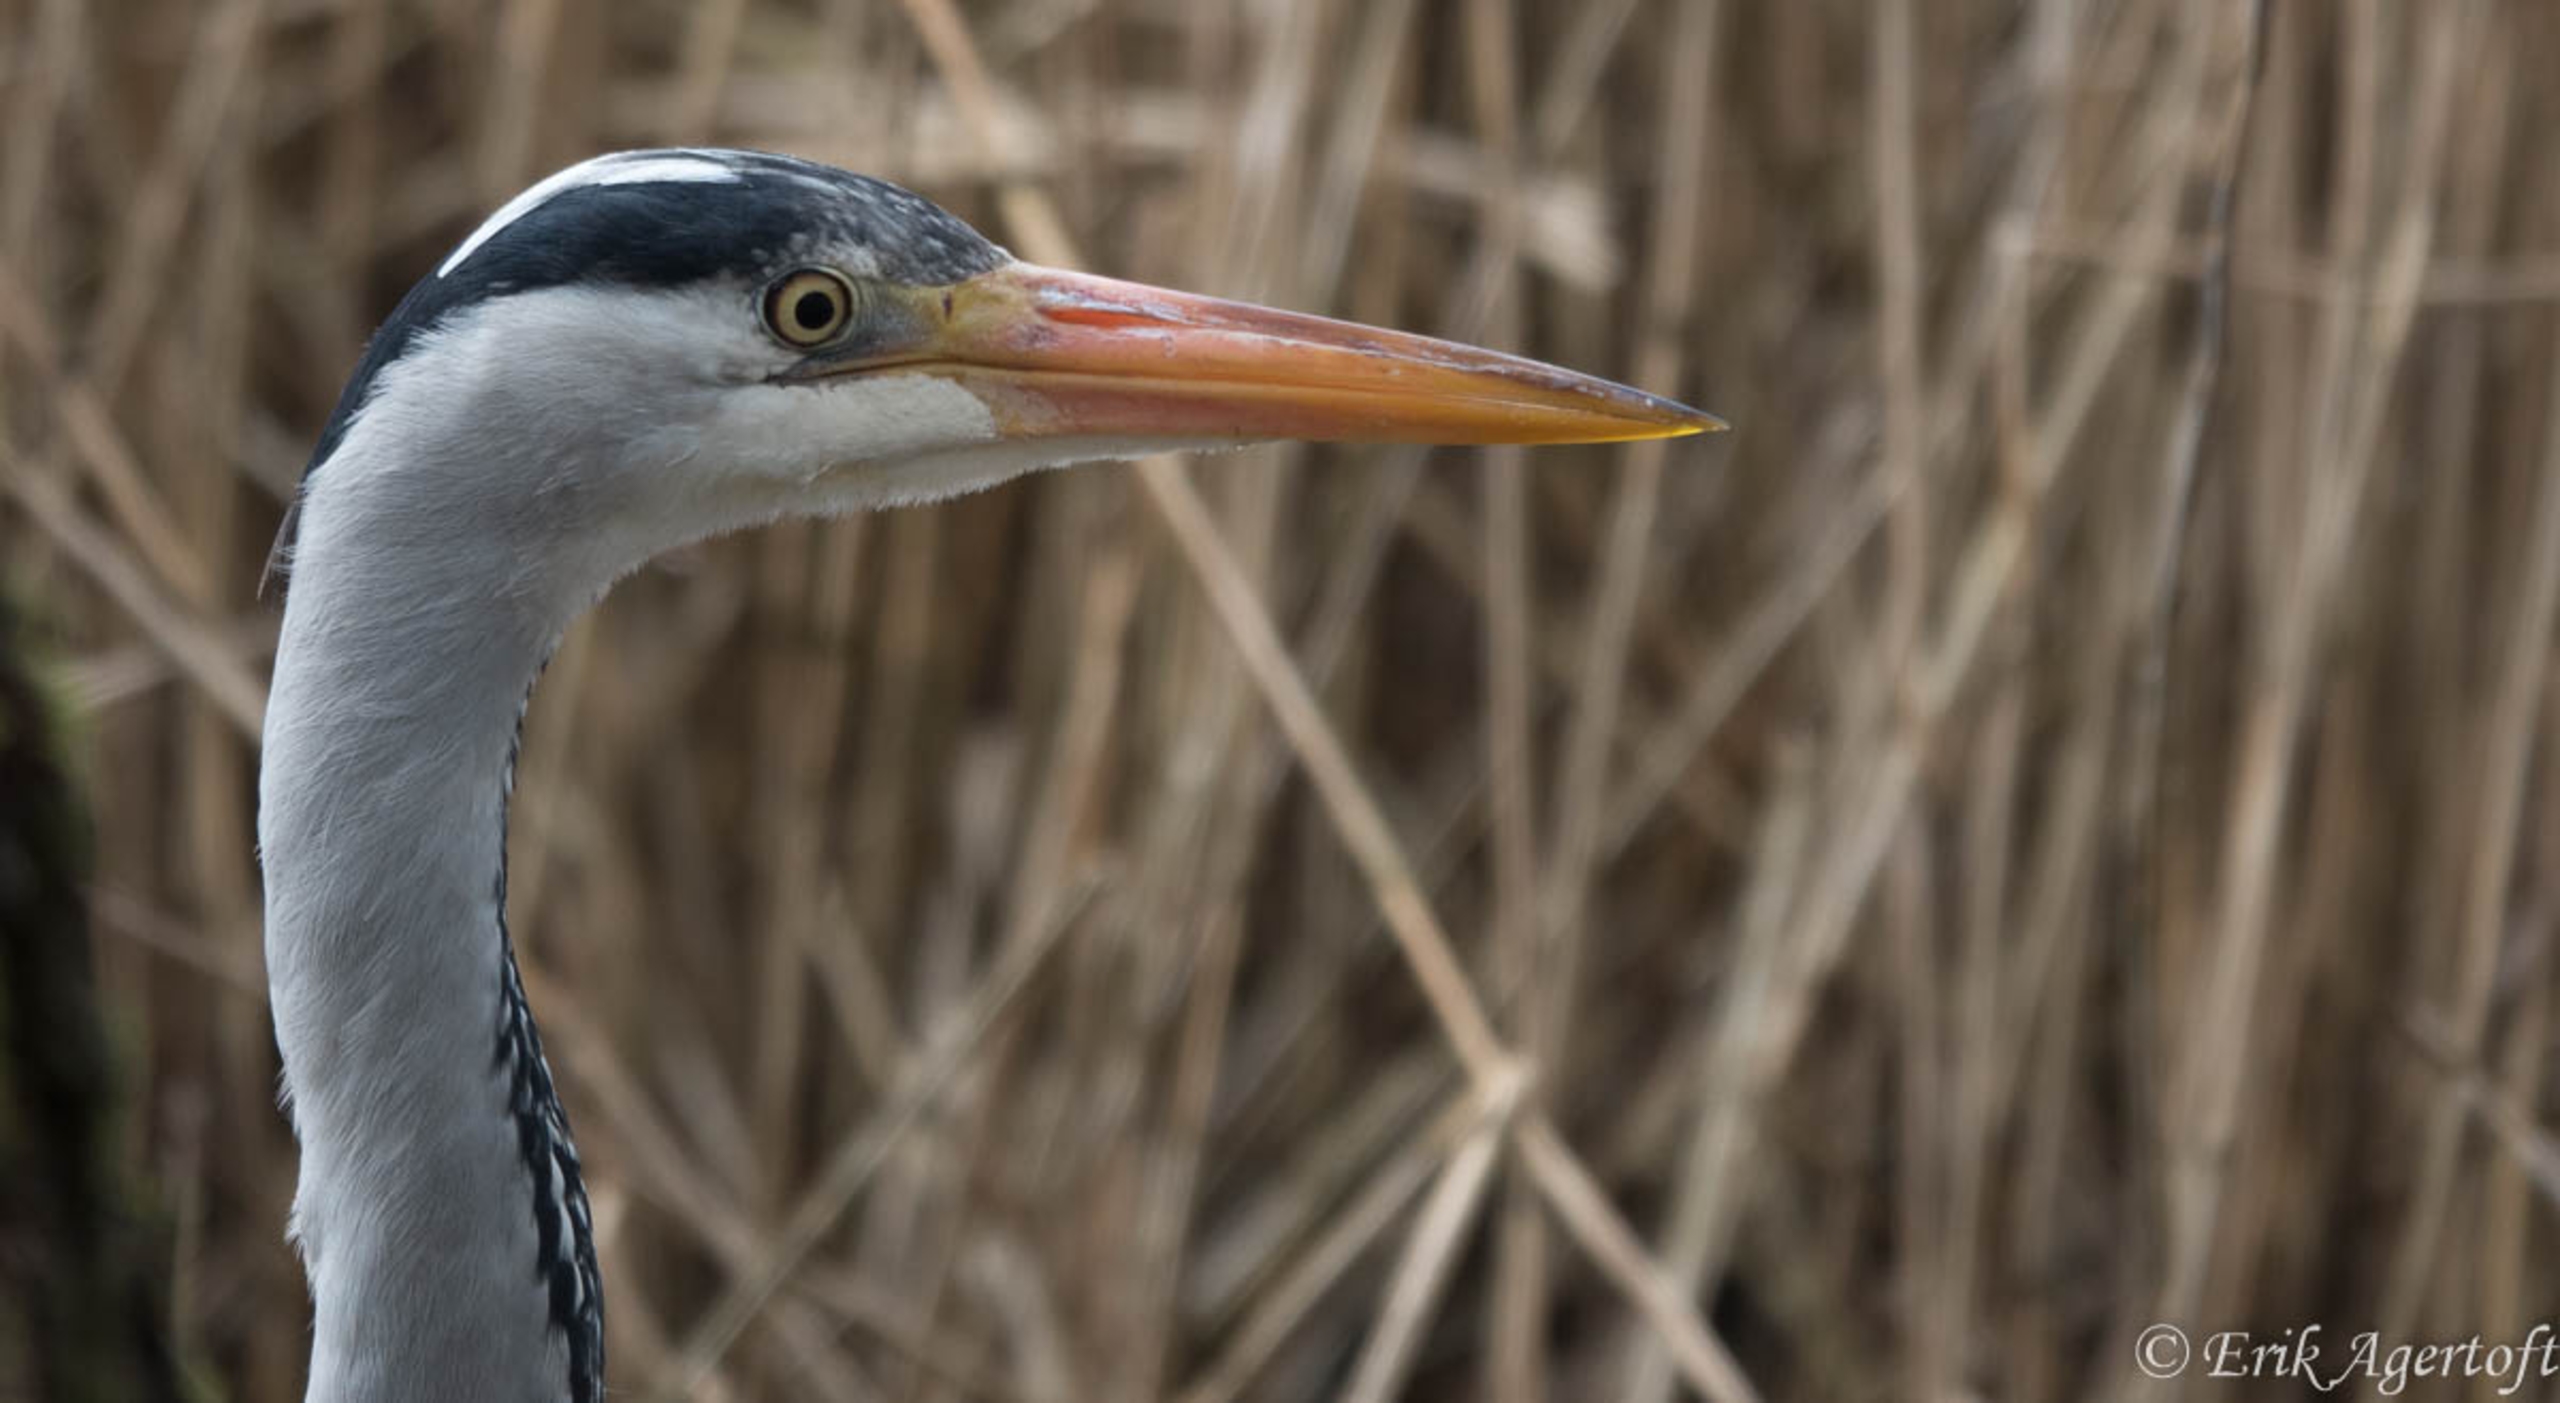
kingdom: Animalia
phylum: Chordata
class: Aves
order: Pelecaniformes
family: Ardeidae
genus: Ardea
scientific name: Ardea cinerea
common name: Fiskehejre
